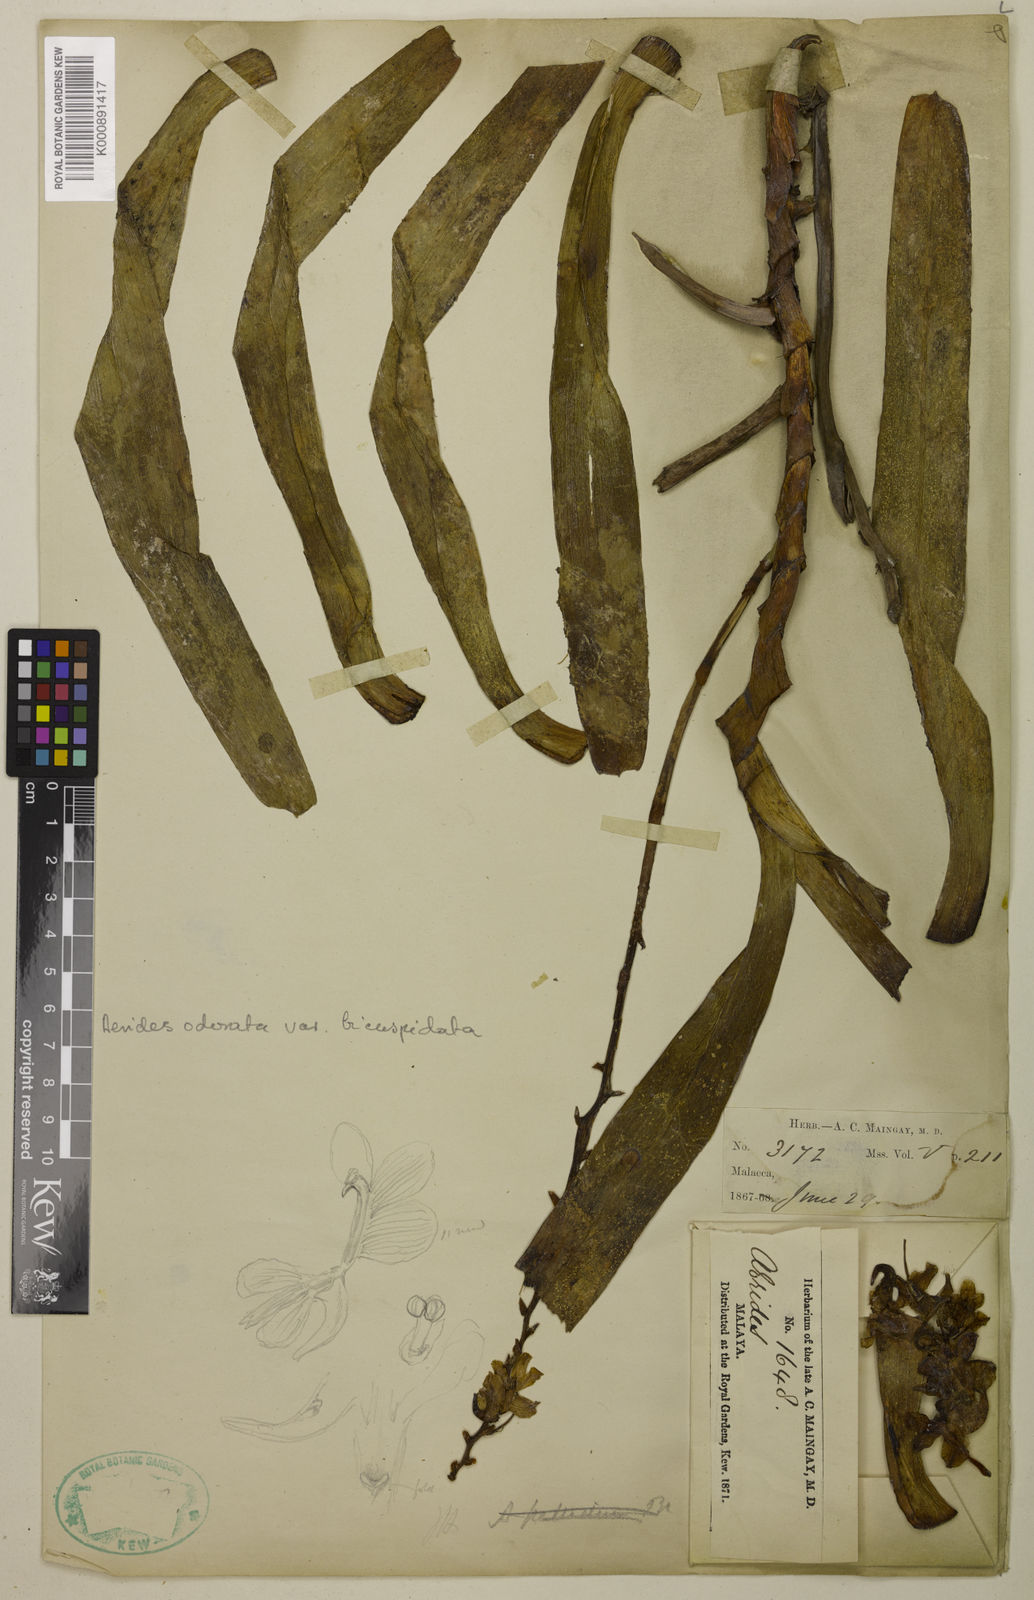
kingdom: Plantae
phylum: Tracheophyta
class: Liliopsida
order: Asparagales
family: Orchidaceae
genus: Aerides
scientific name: Aerides
